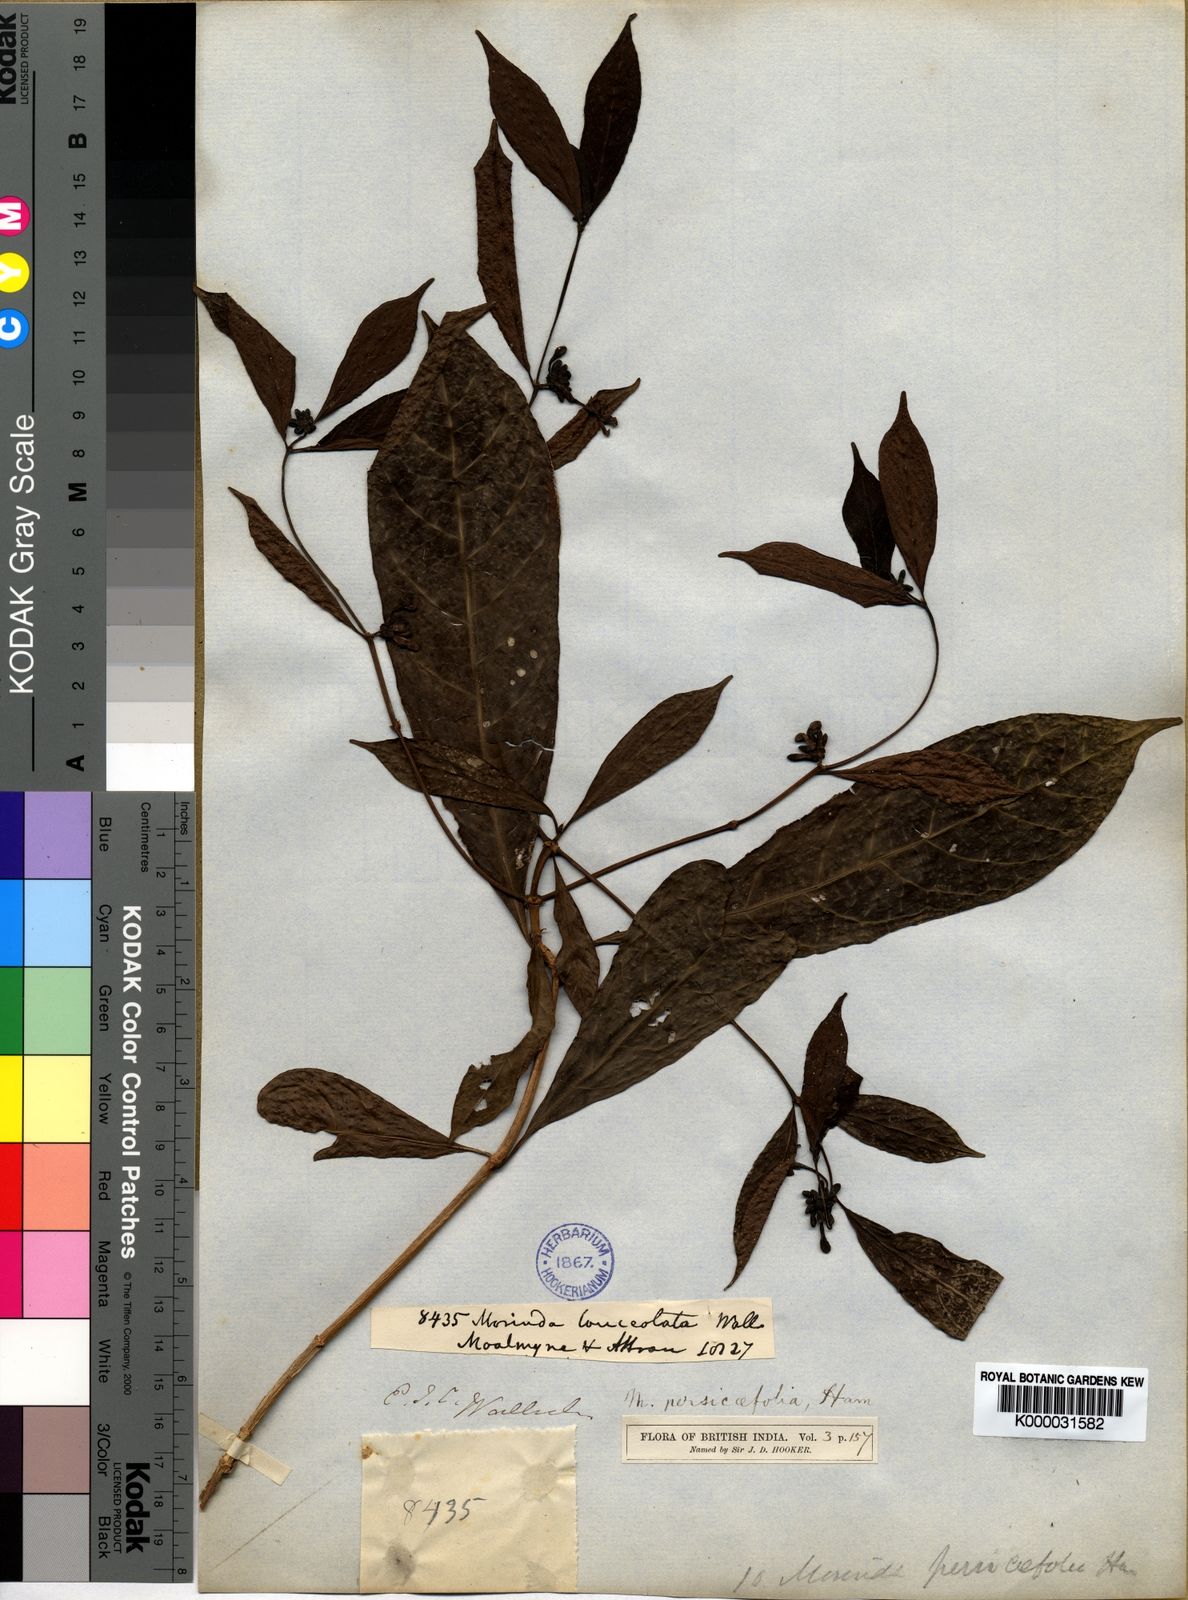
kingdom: Plantae
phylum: Tracheophyta
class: Magnoliopsida
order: Gentianales
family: Rubiaceae
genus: Morinda
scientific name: Morinda
